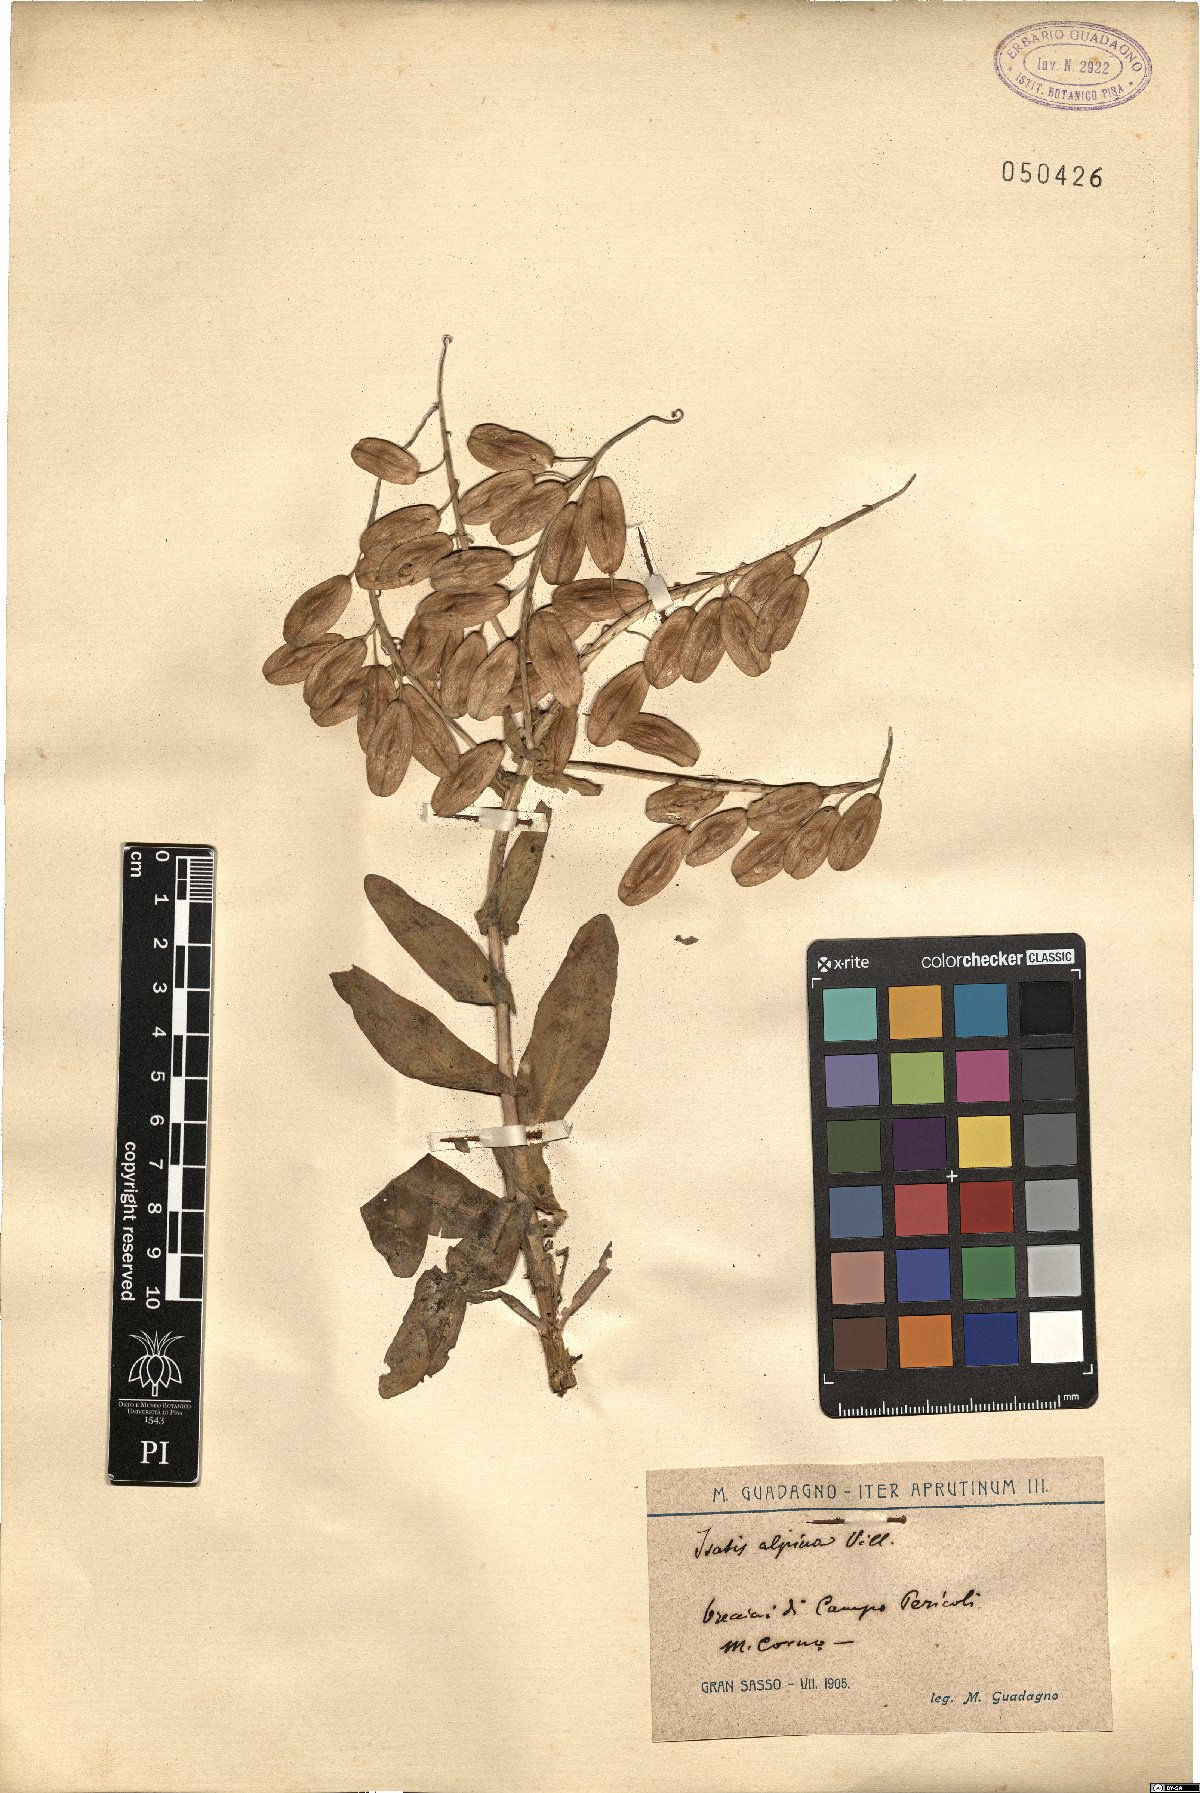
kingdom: Plantae
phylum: Tracheophyta
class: Magnoliopsida
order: Brassicales
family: Brassicaceae
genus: Isatis
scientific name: Isatis tinctoria
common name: Woad
